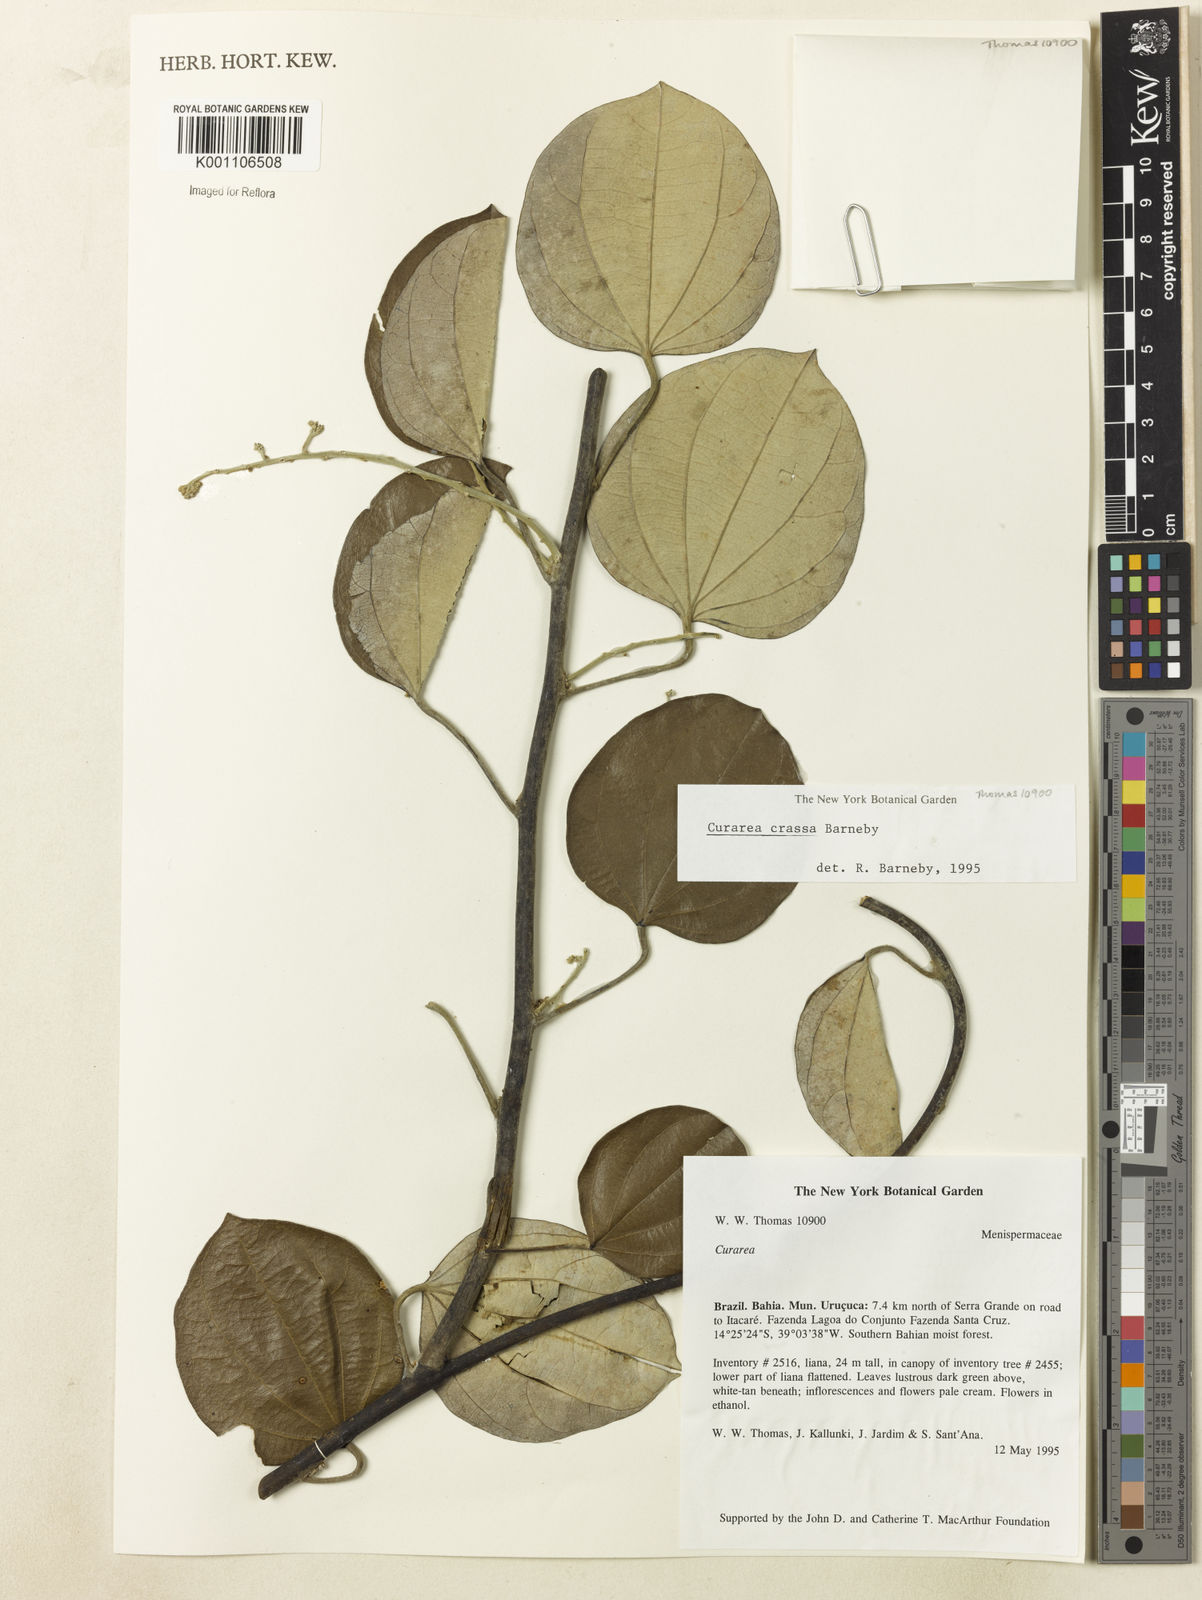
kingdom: Plantae
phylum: Tracheophyta
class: Magnoliopsida
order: Ranunculales
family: Menispermaceae
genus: Curarea
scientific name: Curarea crassa
